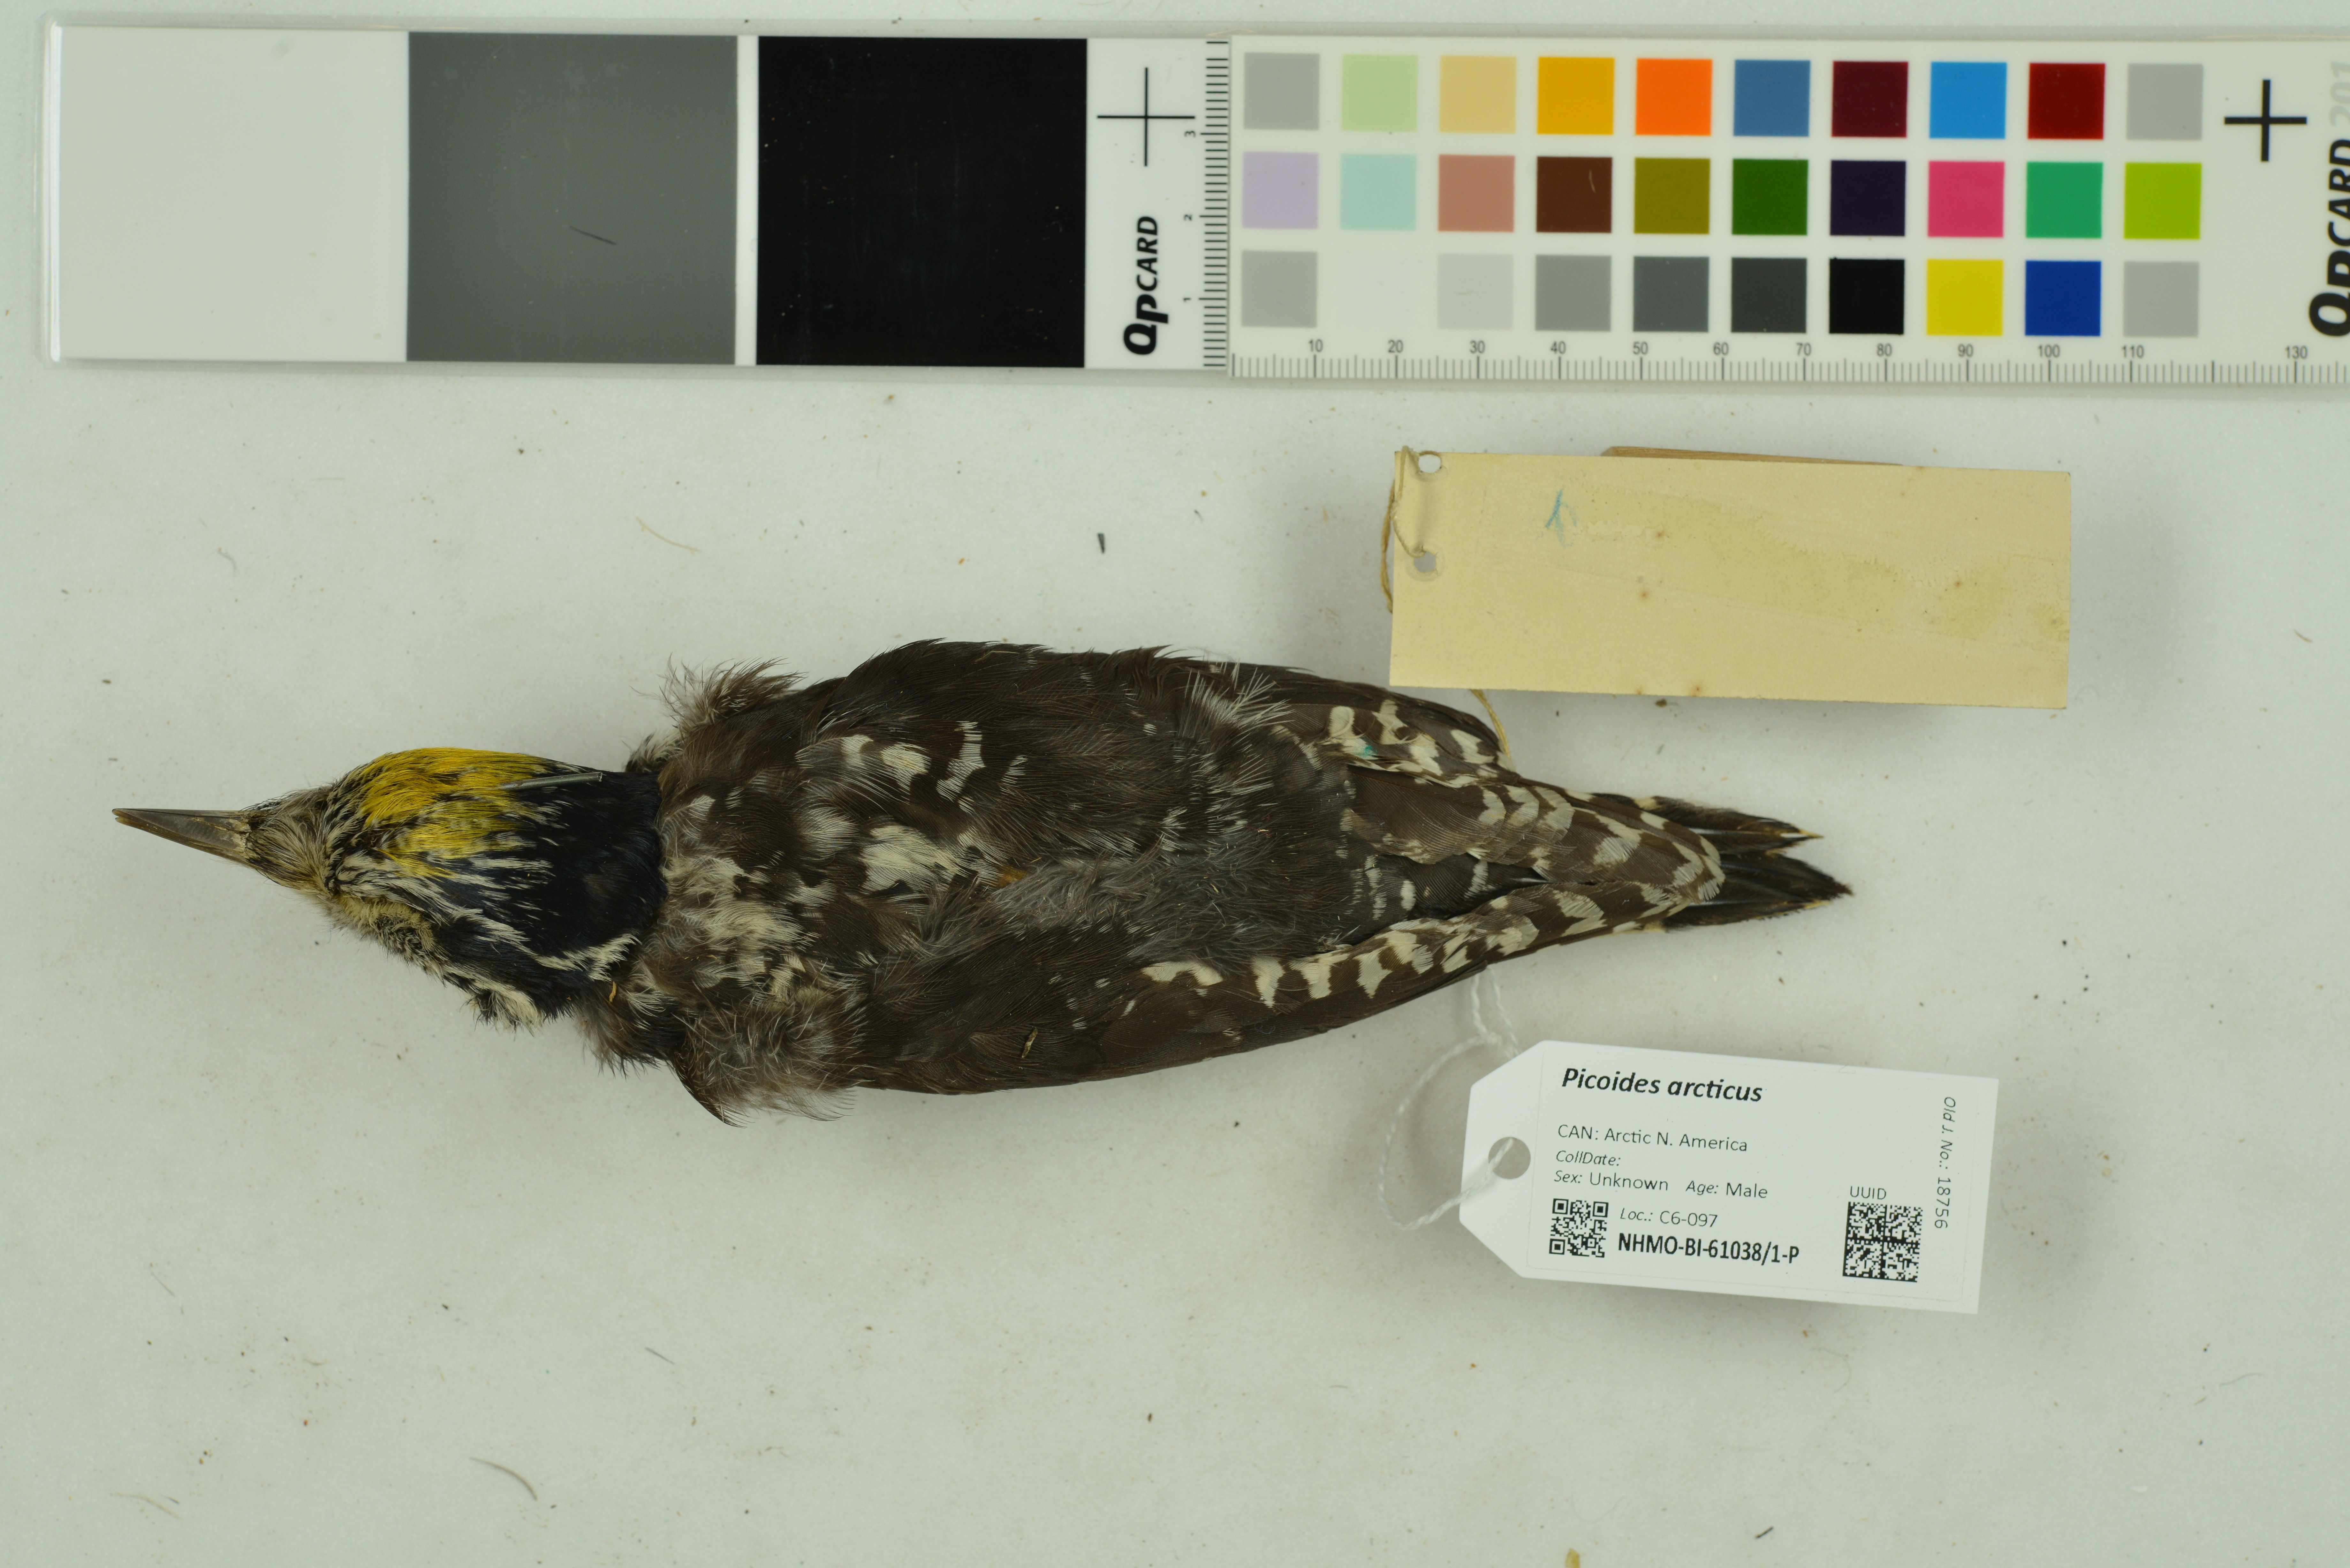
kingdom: Animalia
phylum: Chordata
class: Aves
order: Piciformes
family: Picidae
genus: Picoides
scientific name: Picoides arcticus
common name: Black-backed woodpecker
